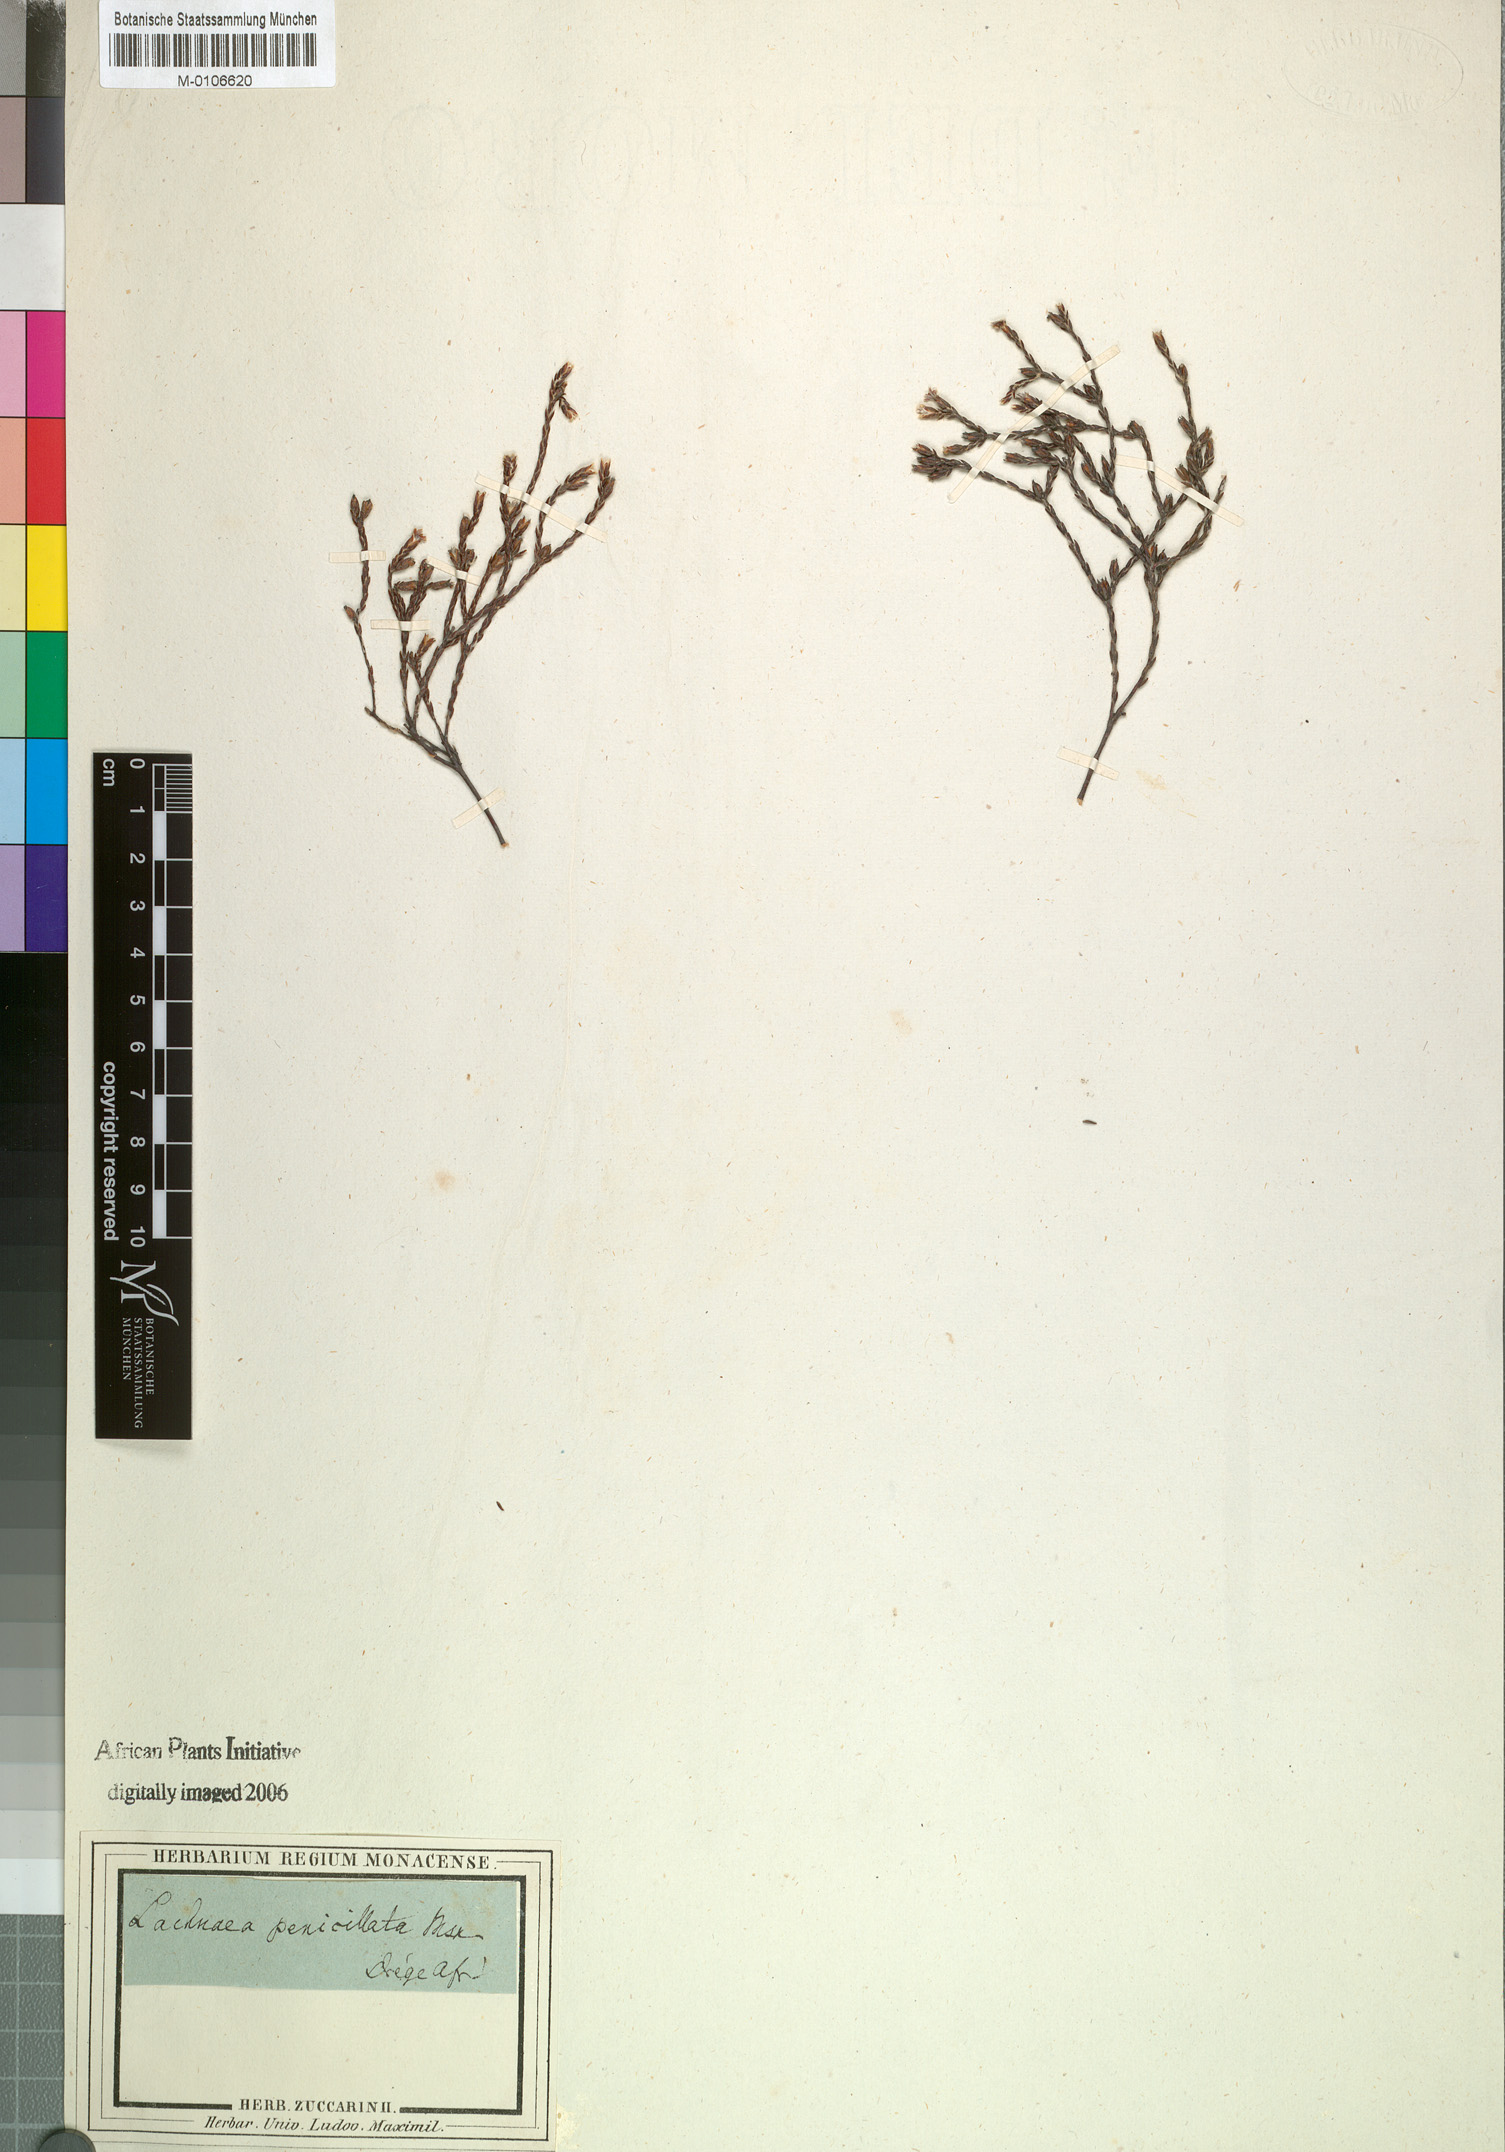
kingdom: Plantae
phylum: Tracheophyta
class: Magnoliopsida
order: Malvales
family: Thymelaeaceae
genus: Lachnaea
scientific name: Lachnaea penicillata
